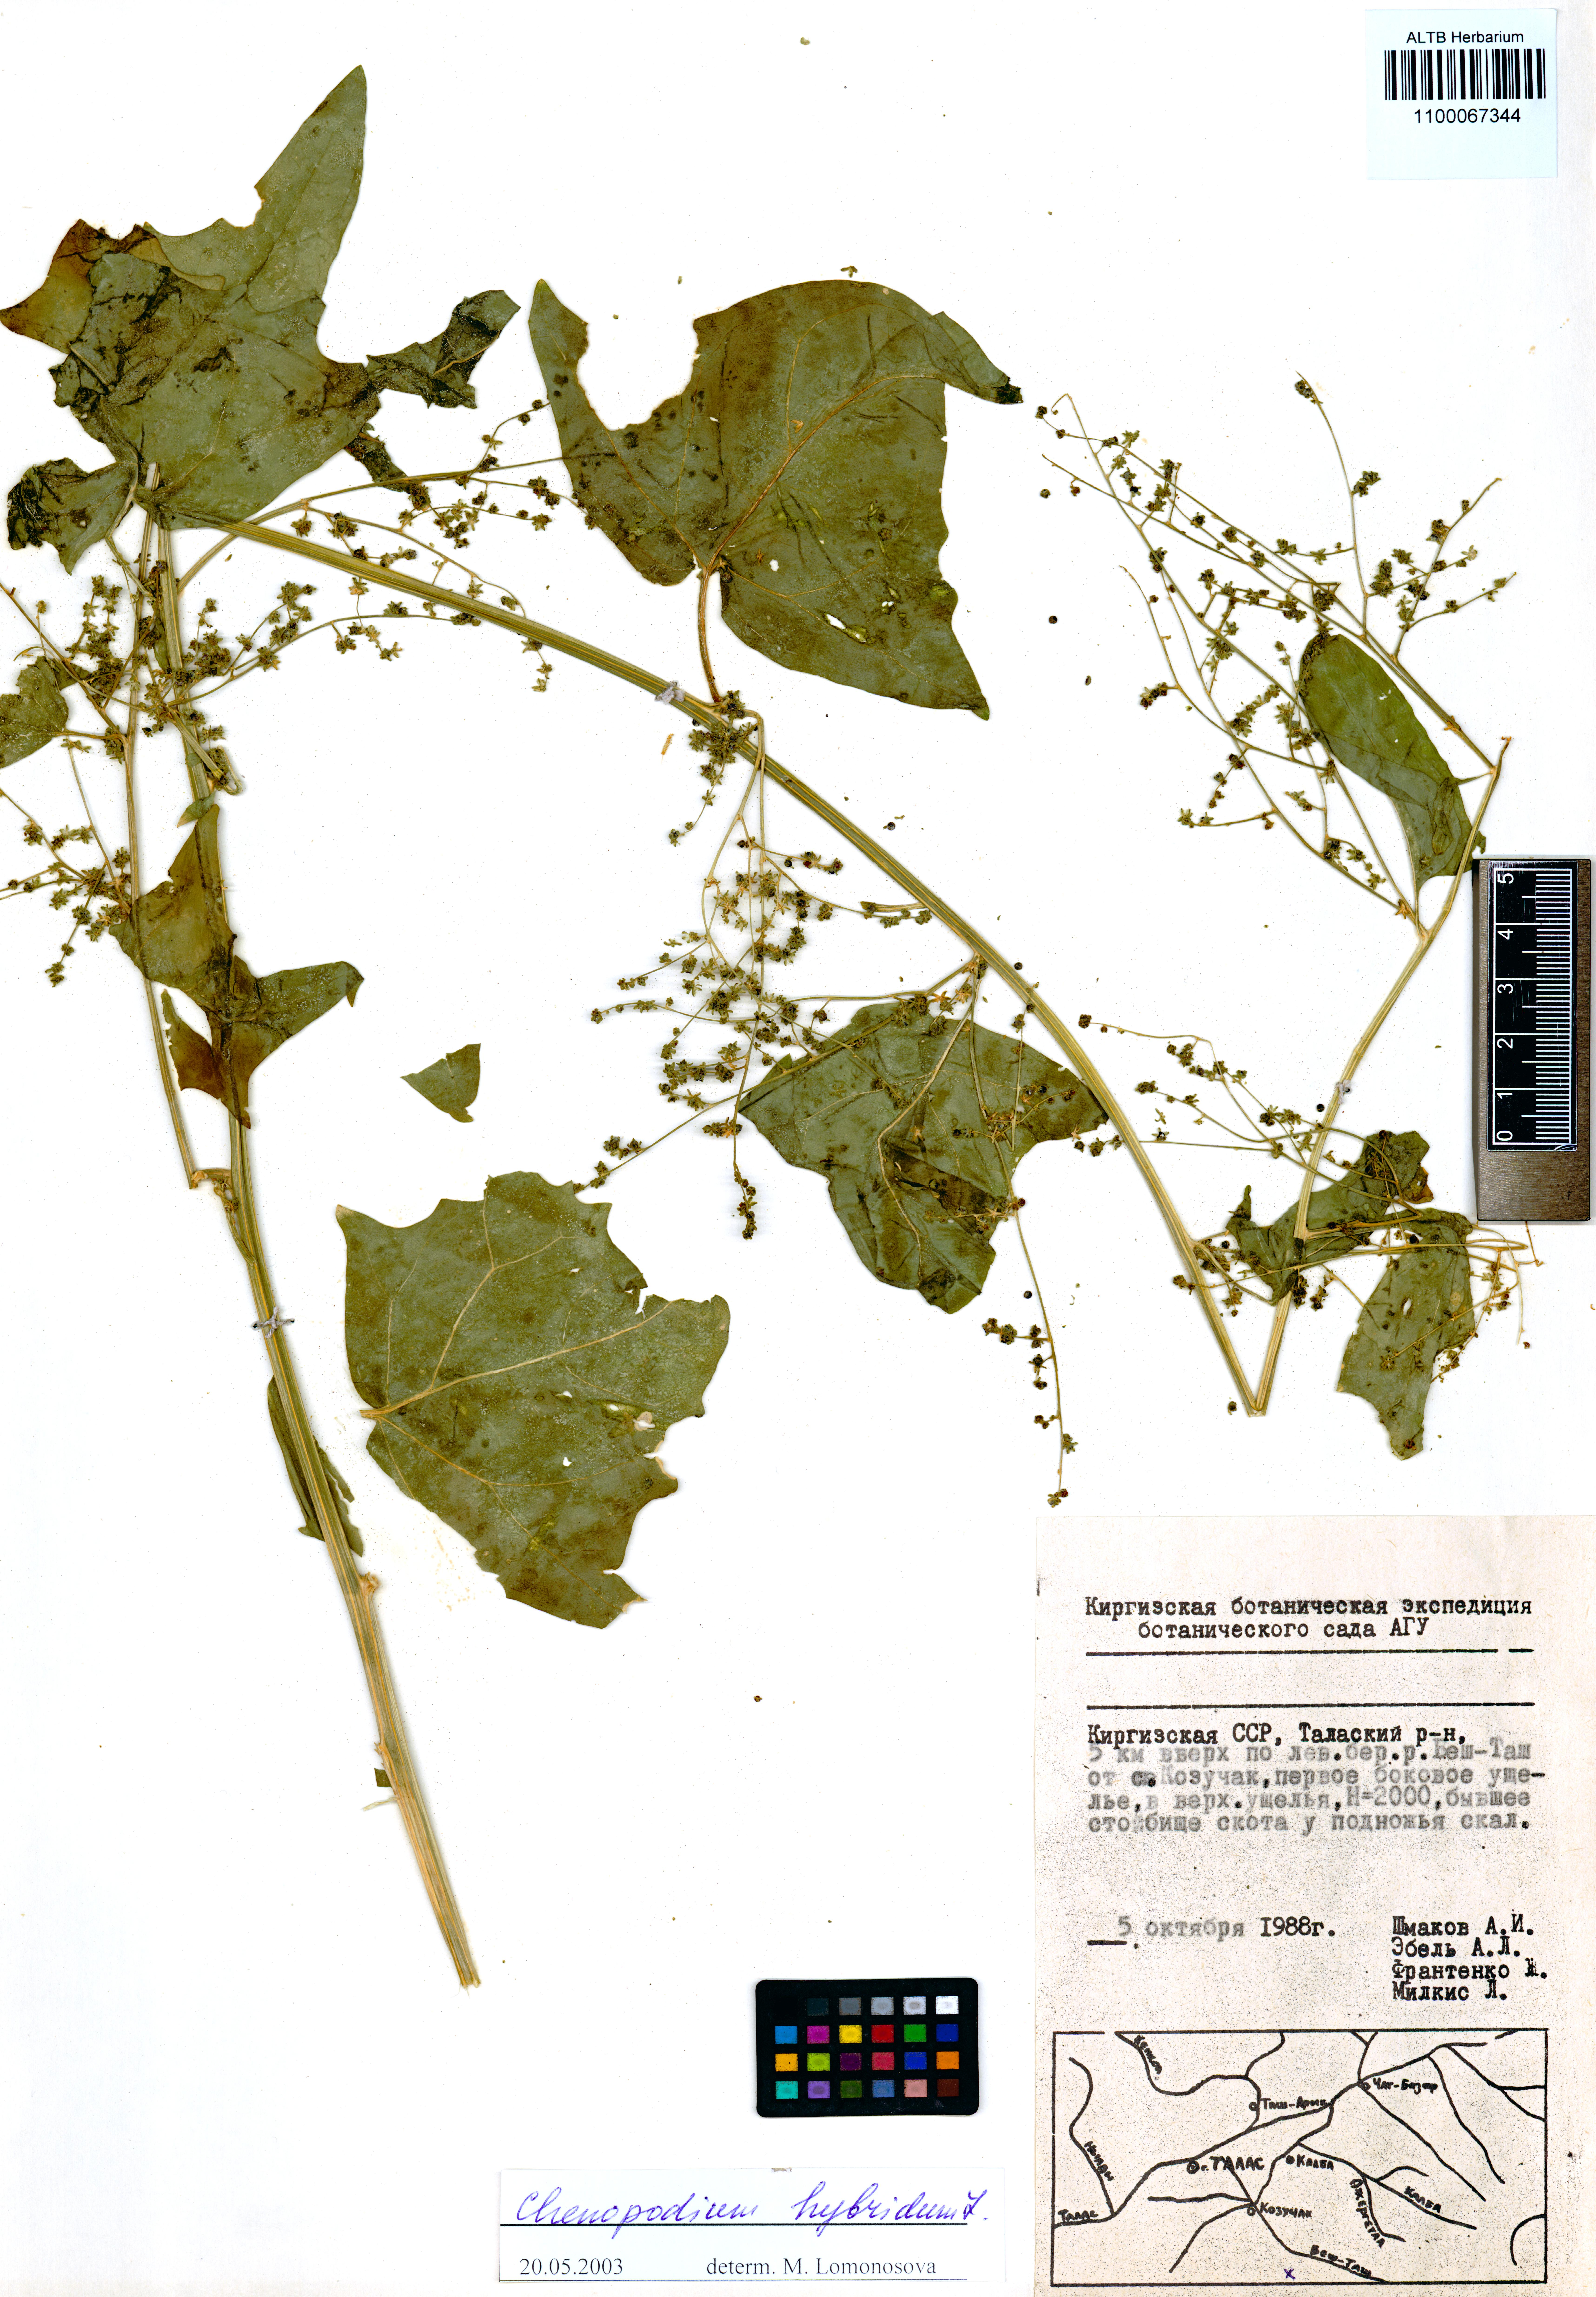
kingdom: Plantae
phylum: Tracheophyta
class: Magnoliopsida
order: Caryophyllales
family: Amaranthaceae
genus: Chenopodiastrum
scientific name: Chenopodiastrum hybridum
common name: Mapleleaf goosefoot
